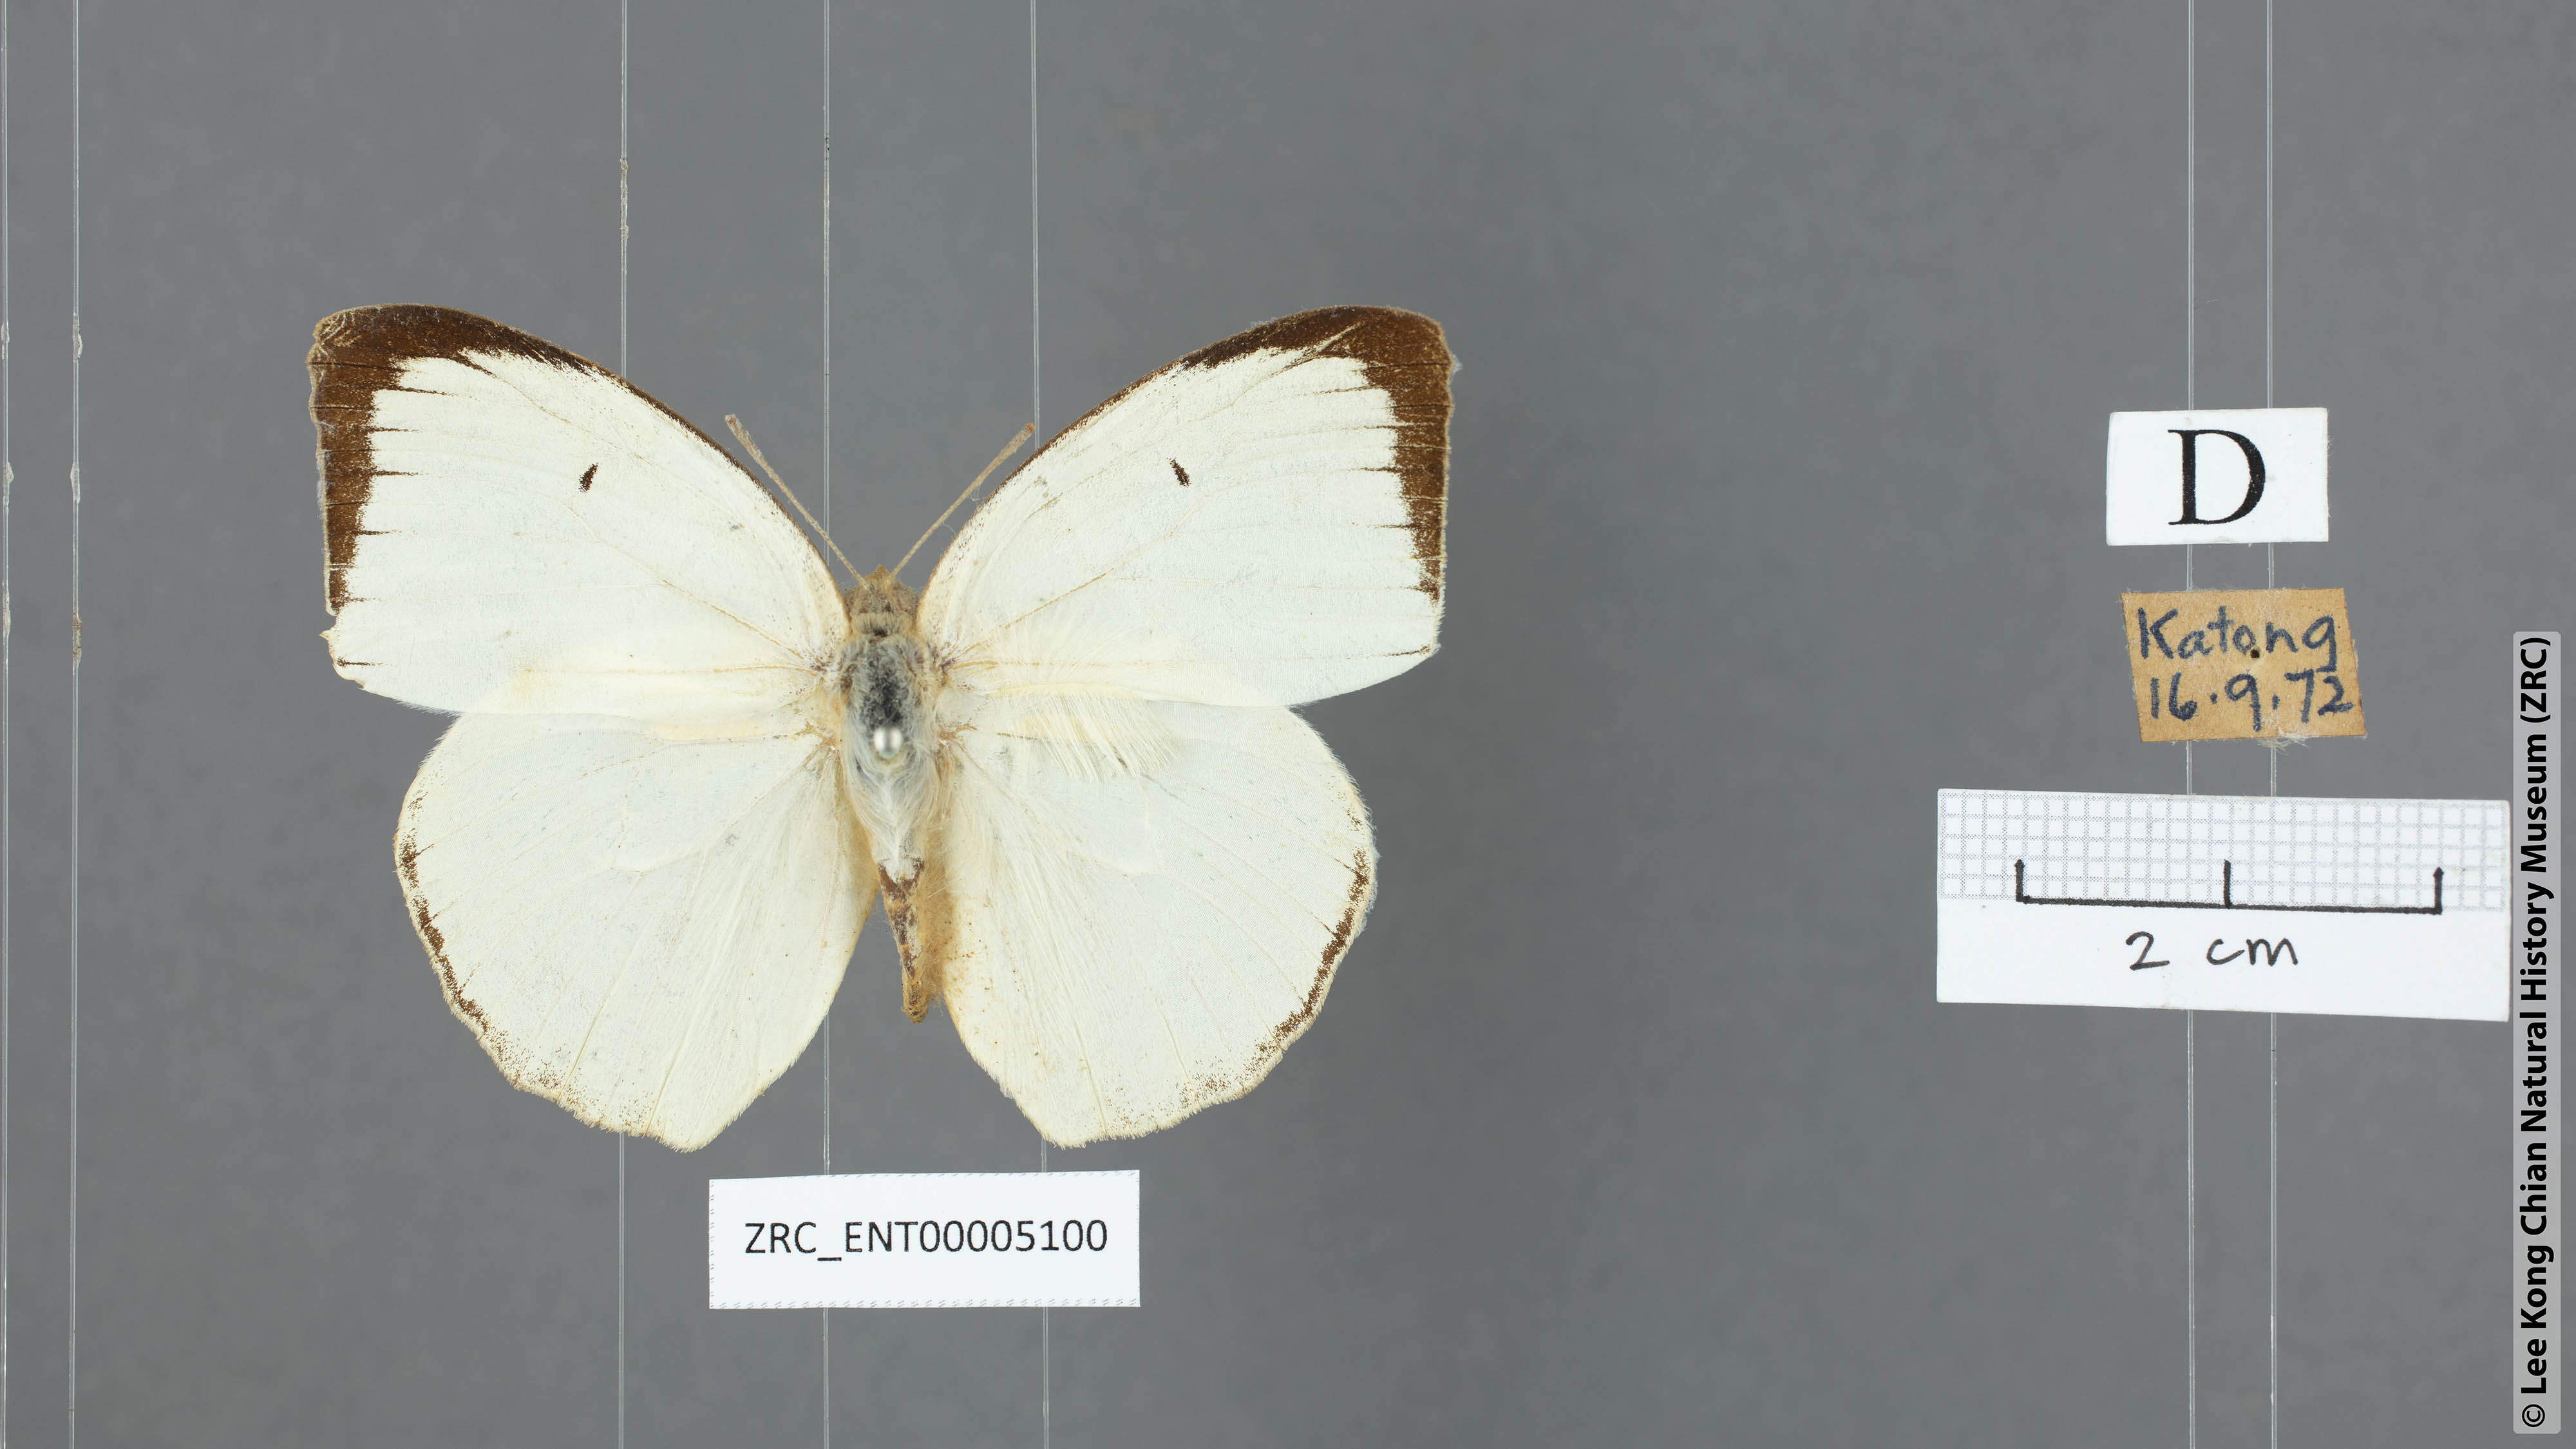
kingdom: Animalia
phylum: Arthropoda
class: Insecta
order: Lepidoptera
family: Pieridae
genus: Catopsilia
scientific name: Catopsilia pyranthe
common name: Mottled emigrant
